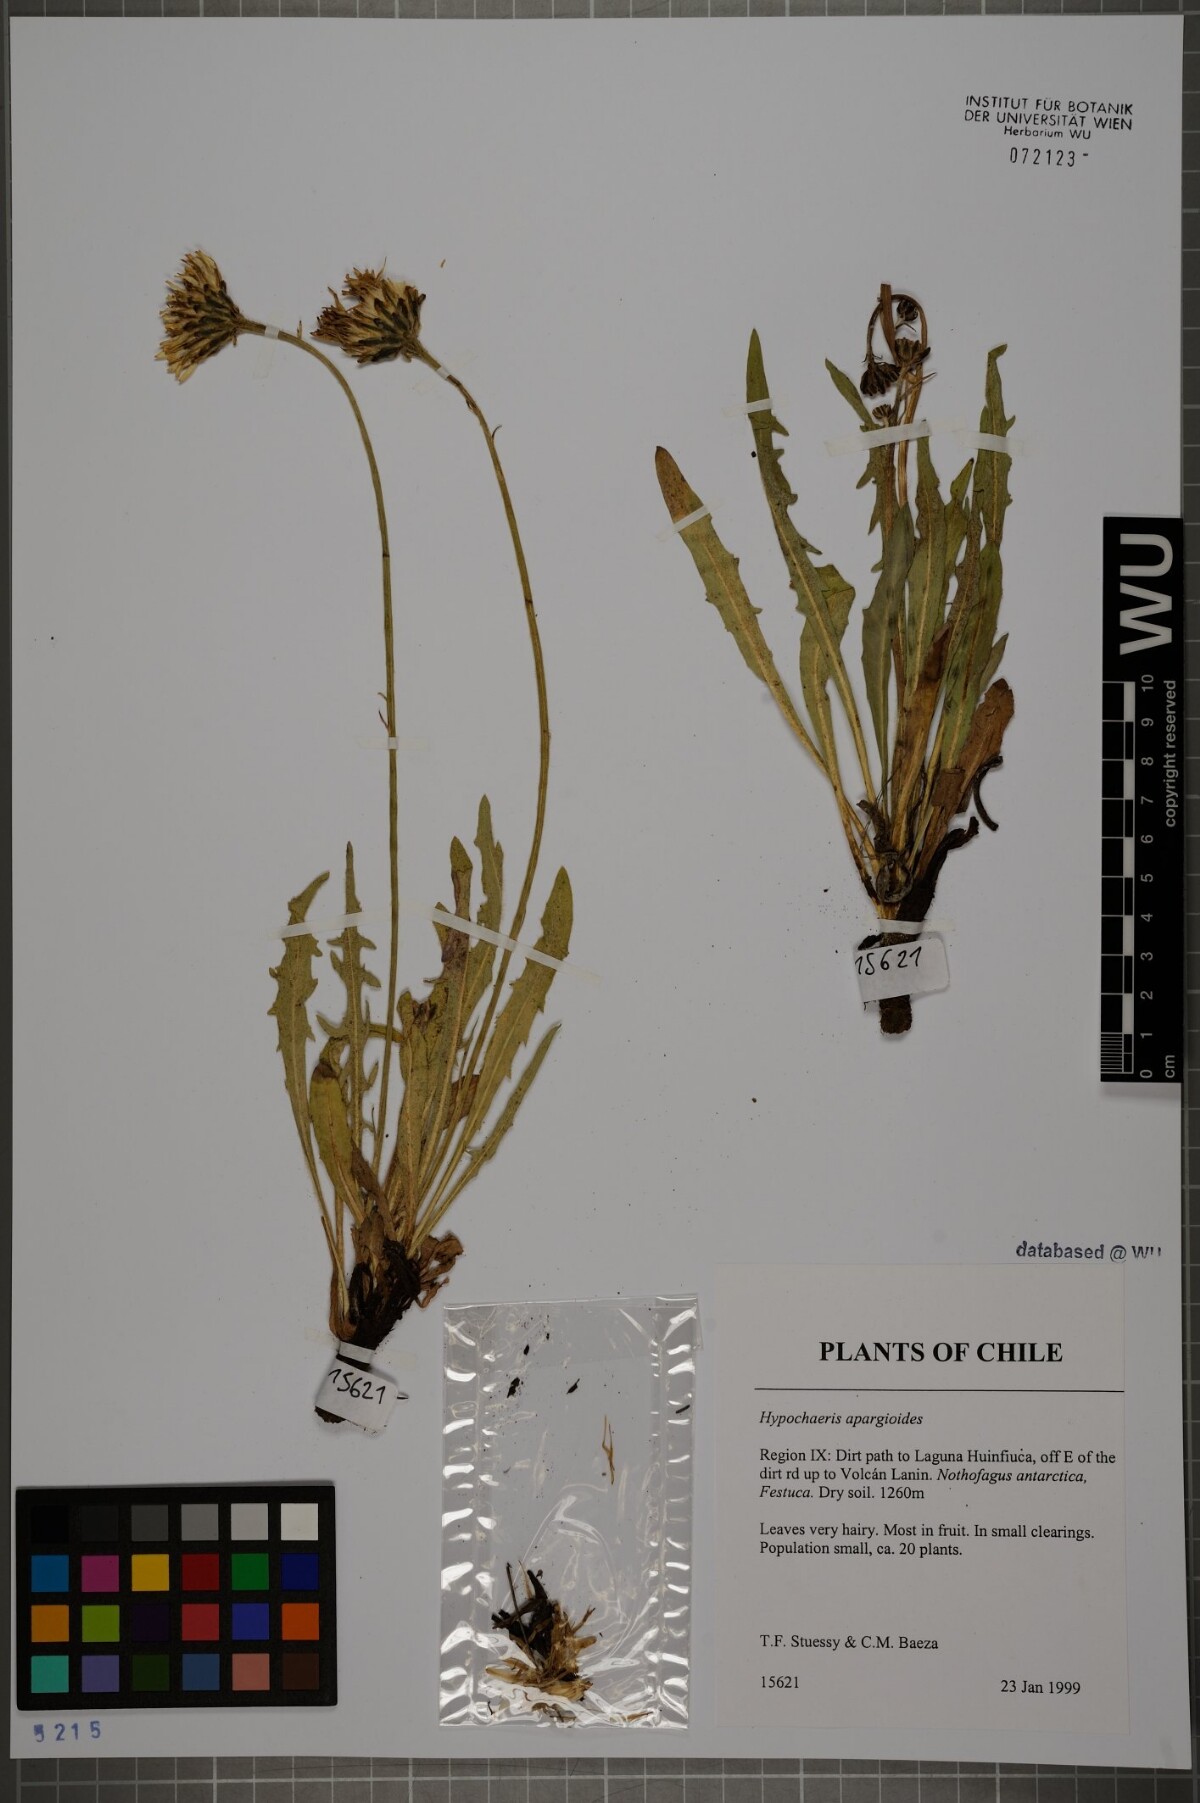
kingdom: Plantae
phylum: Tracheophyta
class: Magnoliopsida
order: Asterales
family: Asteraceae
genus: Hypochaeris
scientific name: Hypochaeris apargioides
